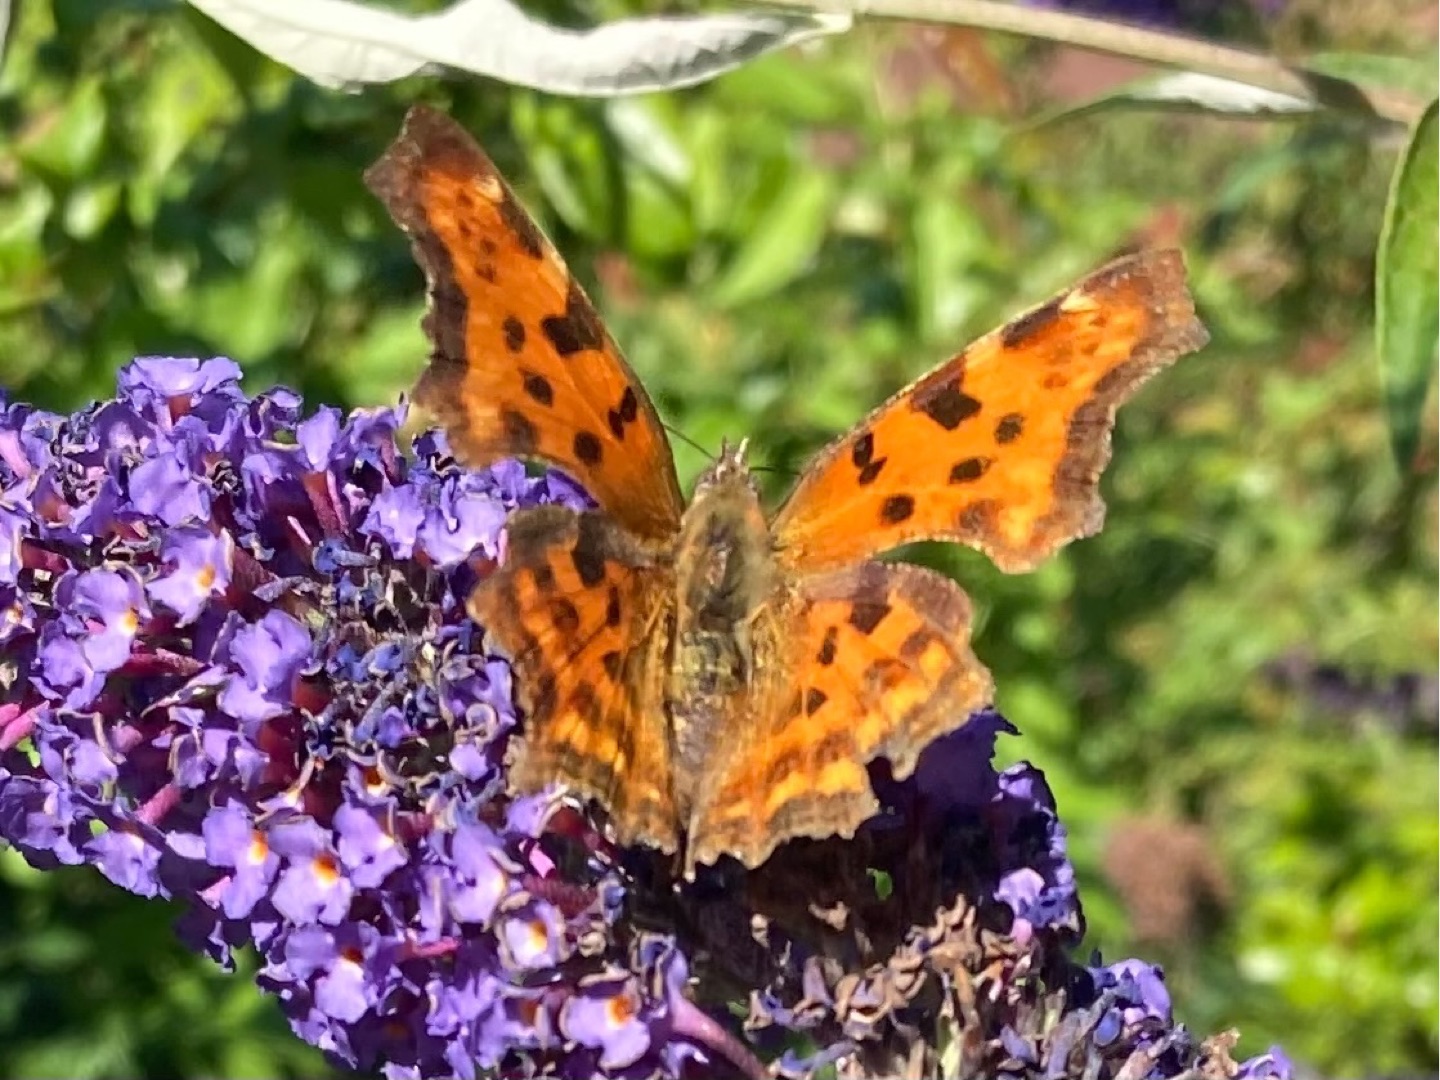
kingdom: Animalia
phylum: Arthropoda
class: Insecta
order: Lepidoptera
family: Nymphalidae
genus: Polygonia
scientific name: Polygonia c-album
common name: Det hvide C
